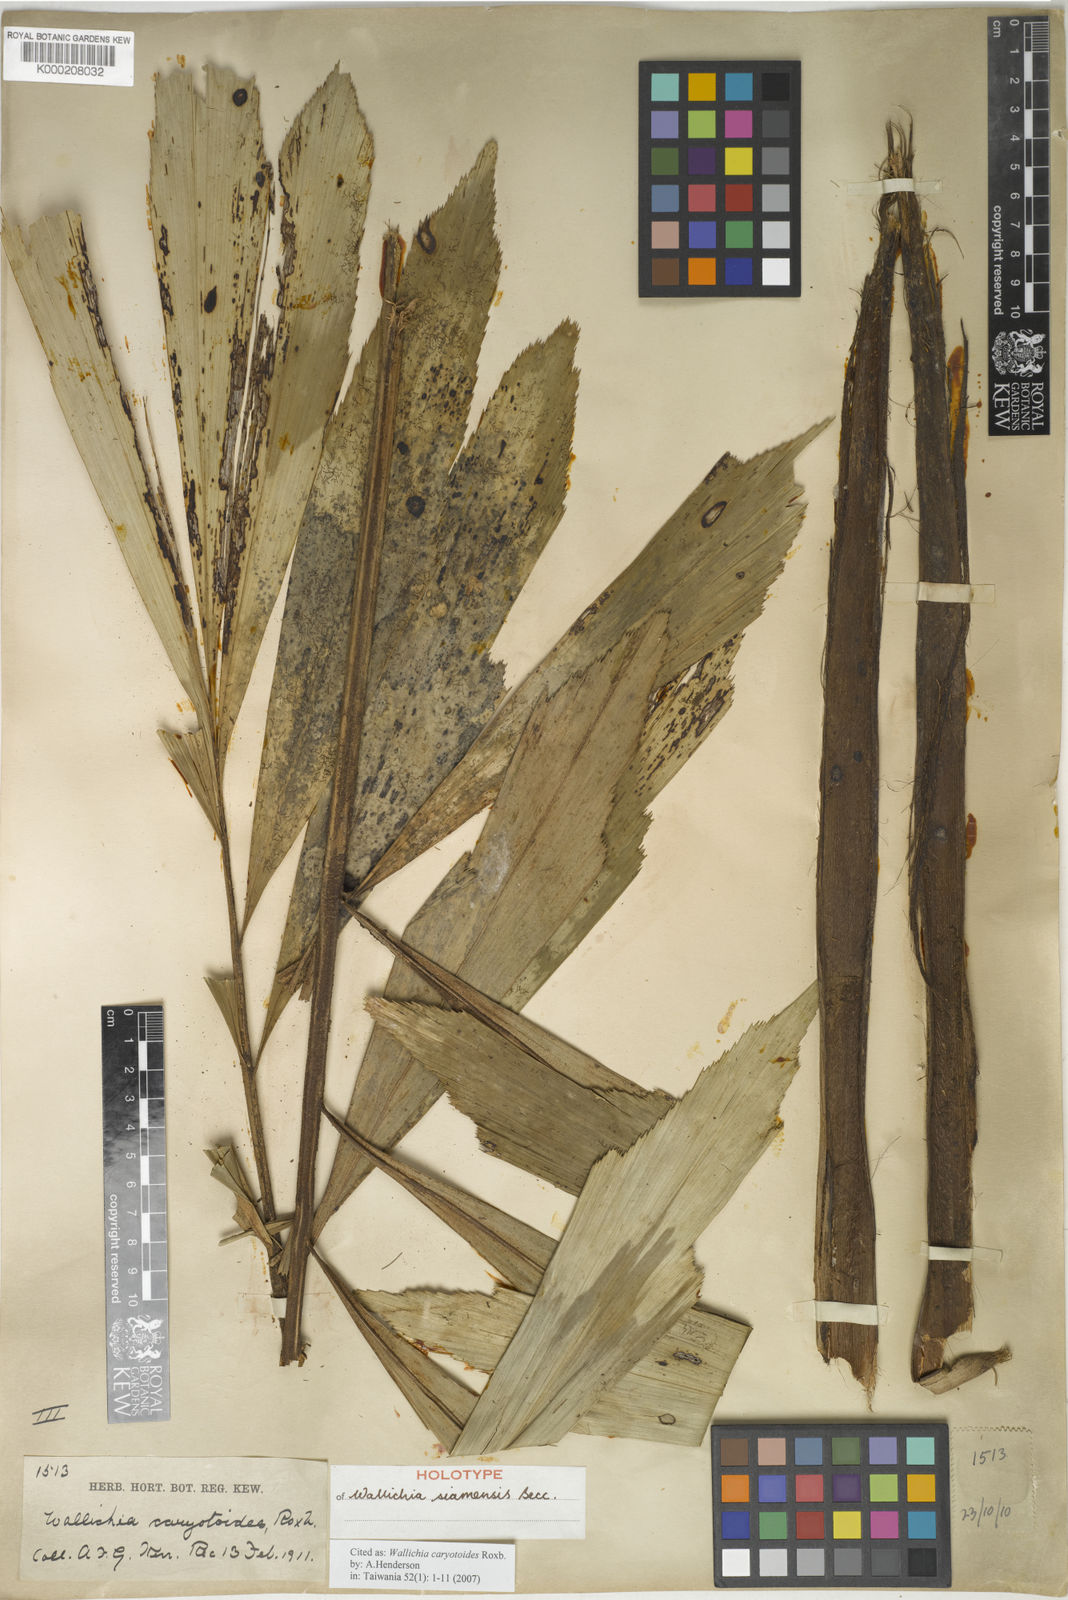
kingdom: Plantae
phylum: Tracheophyta
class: Liliopsida
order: Arecales
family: Arecaceae
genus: Wallichia
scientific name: Wallichia caryotoides
